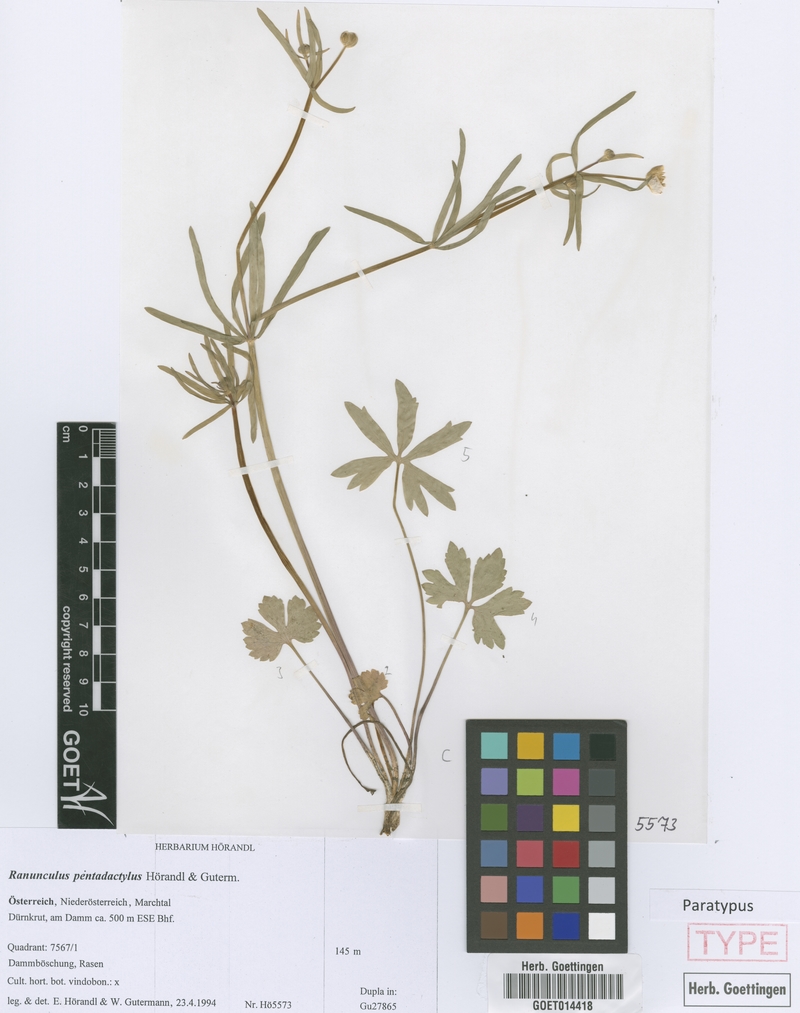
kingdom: Plantae
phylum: Tracheophyta
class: Magnoliopsida
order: Ranunculales
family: Ranunculaceae
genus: Ranunculus
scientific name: Ranunculus pentadactylus
